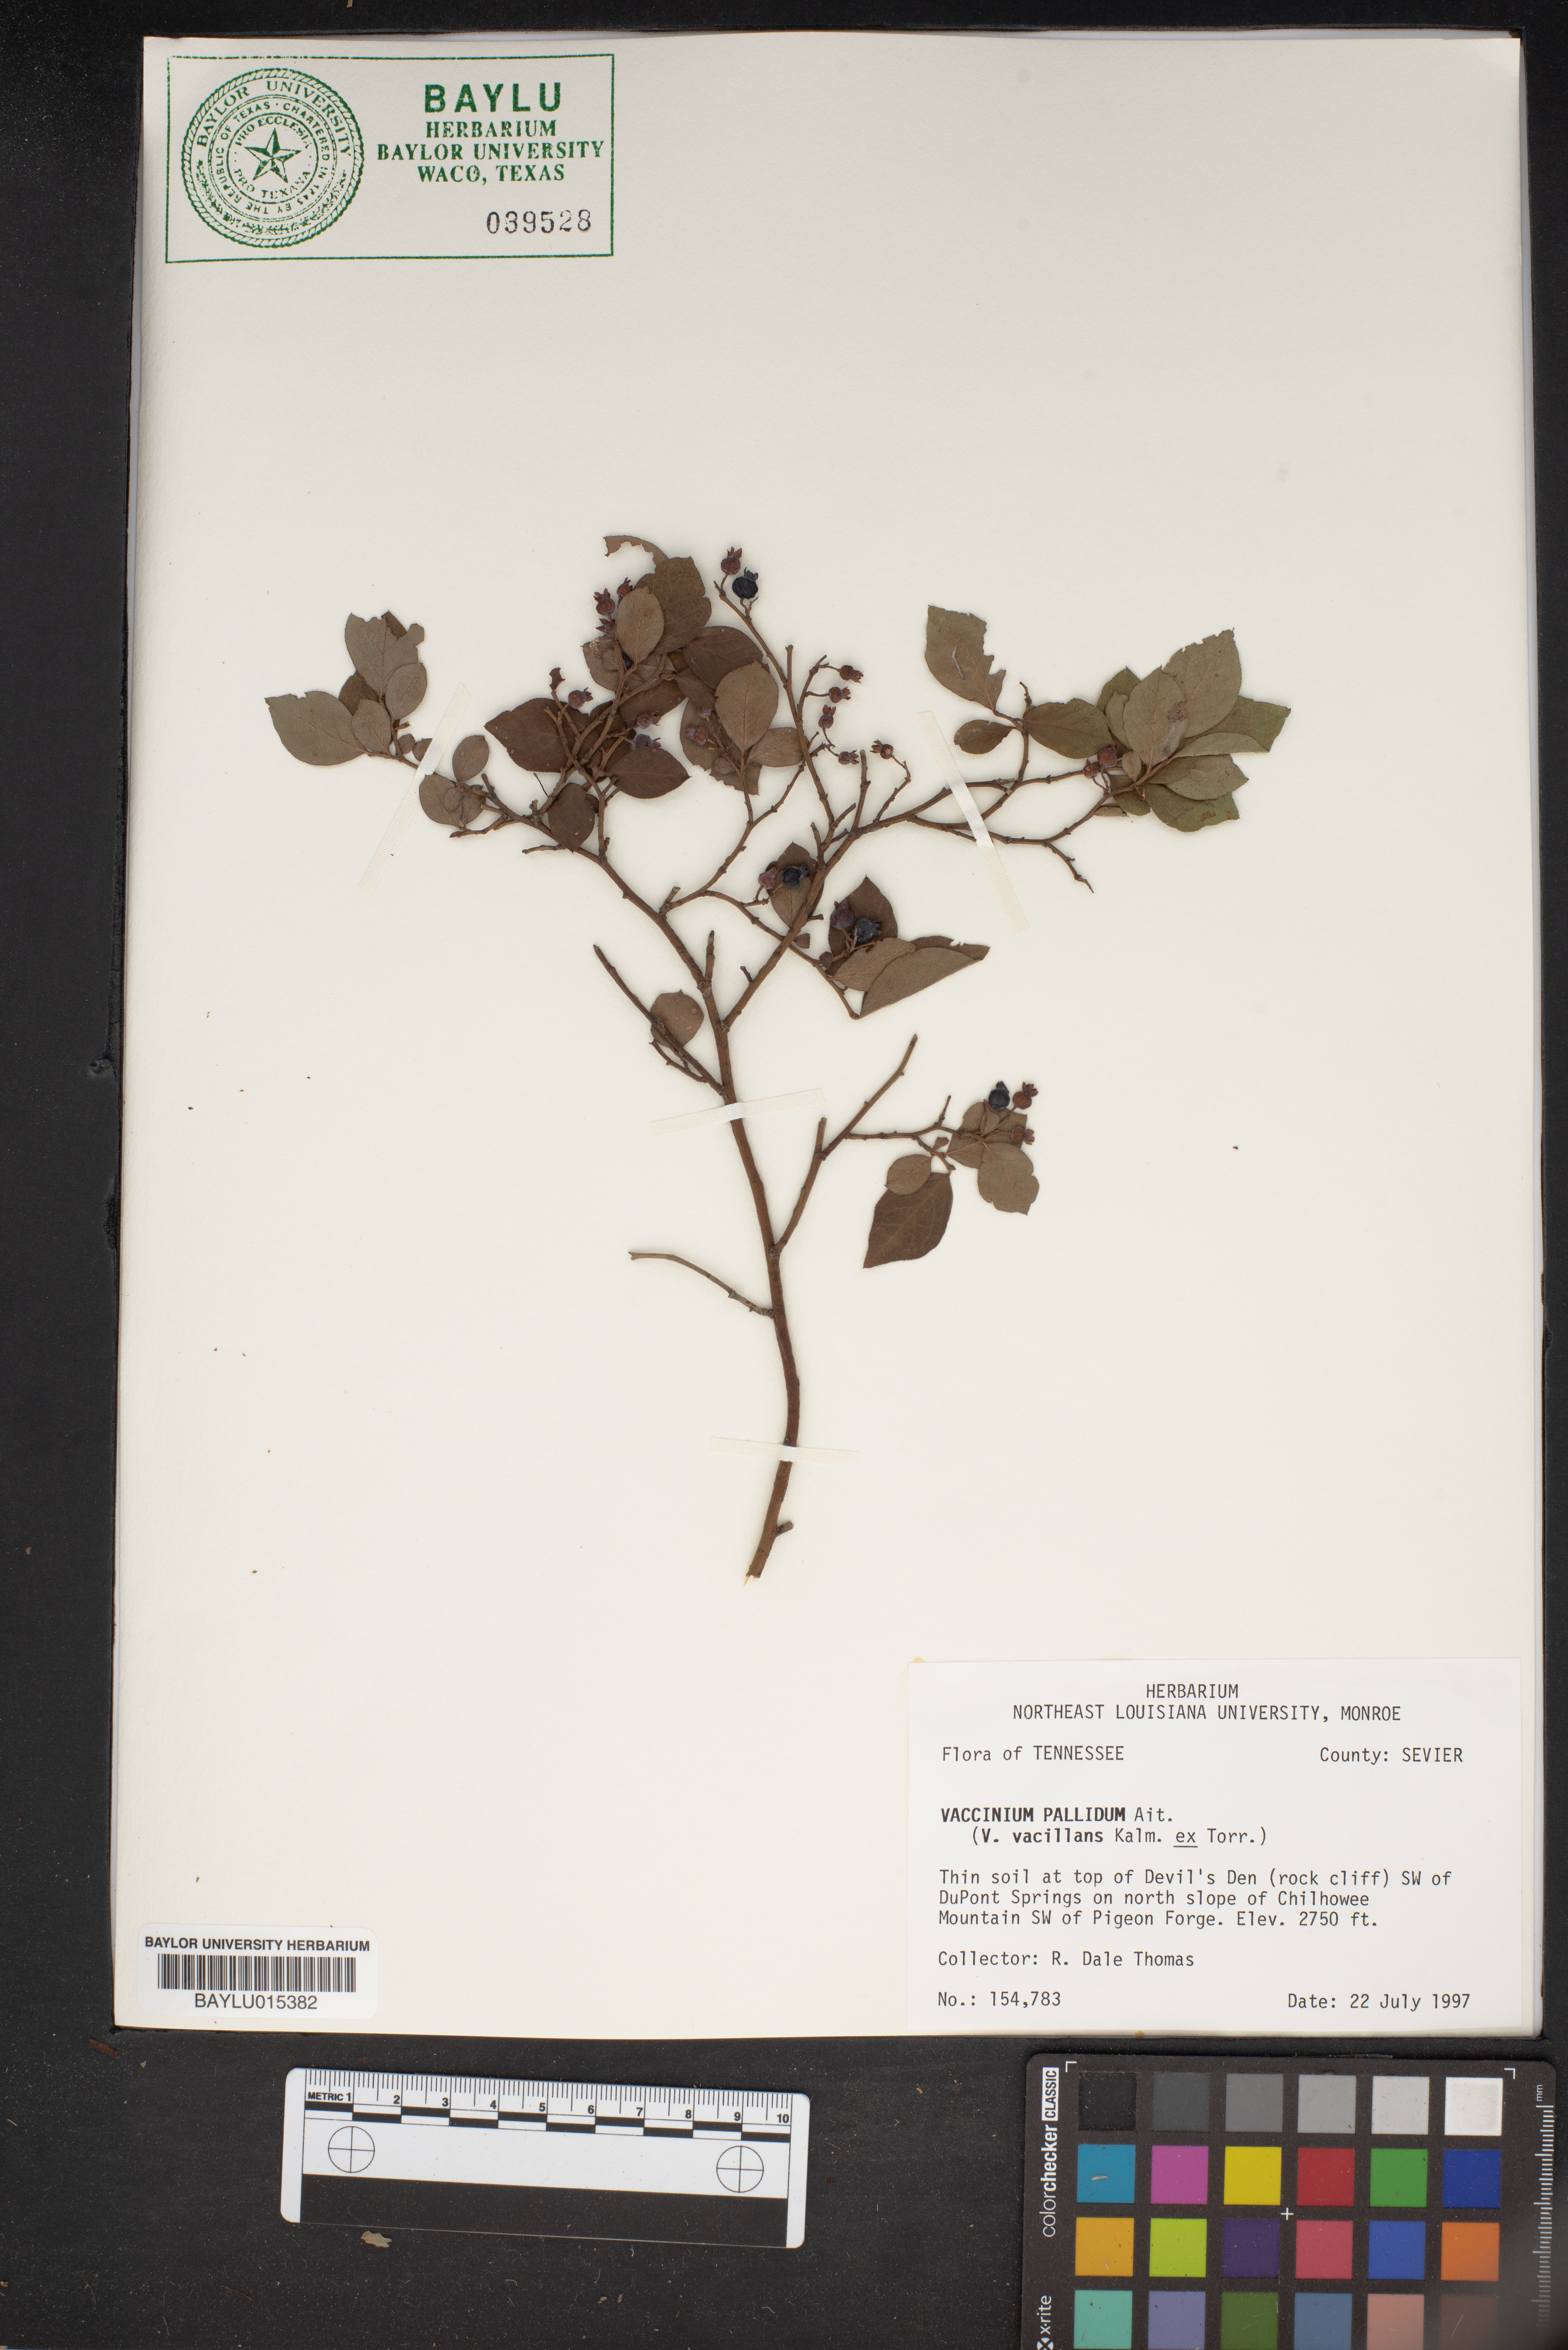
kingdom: Plantae
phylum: Tracheophyta
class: Magnoliopsida
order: Ericales
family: Ericaceae
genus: Vaccinium
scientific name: Vaccinium pallidum
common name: Blue ridge blueberry
